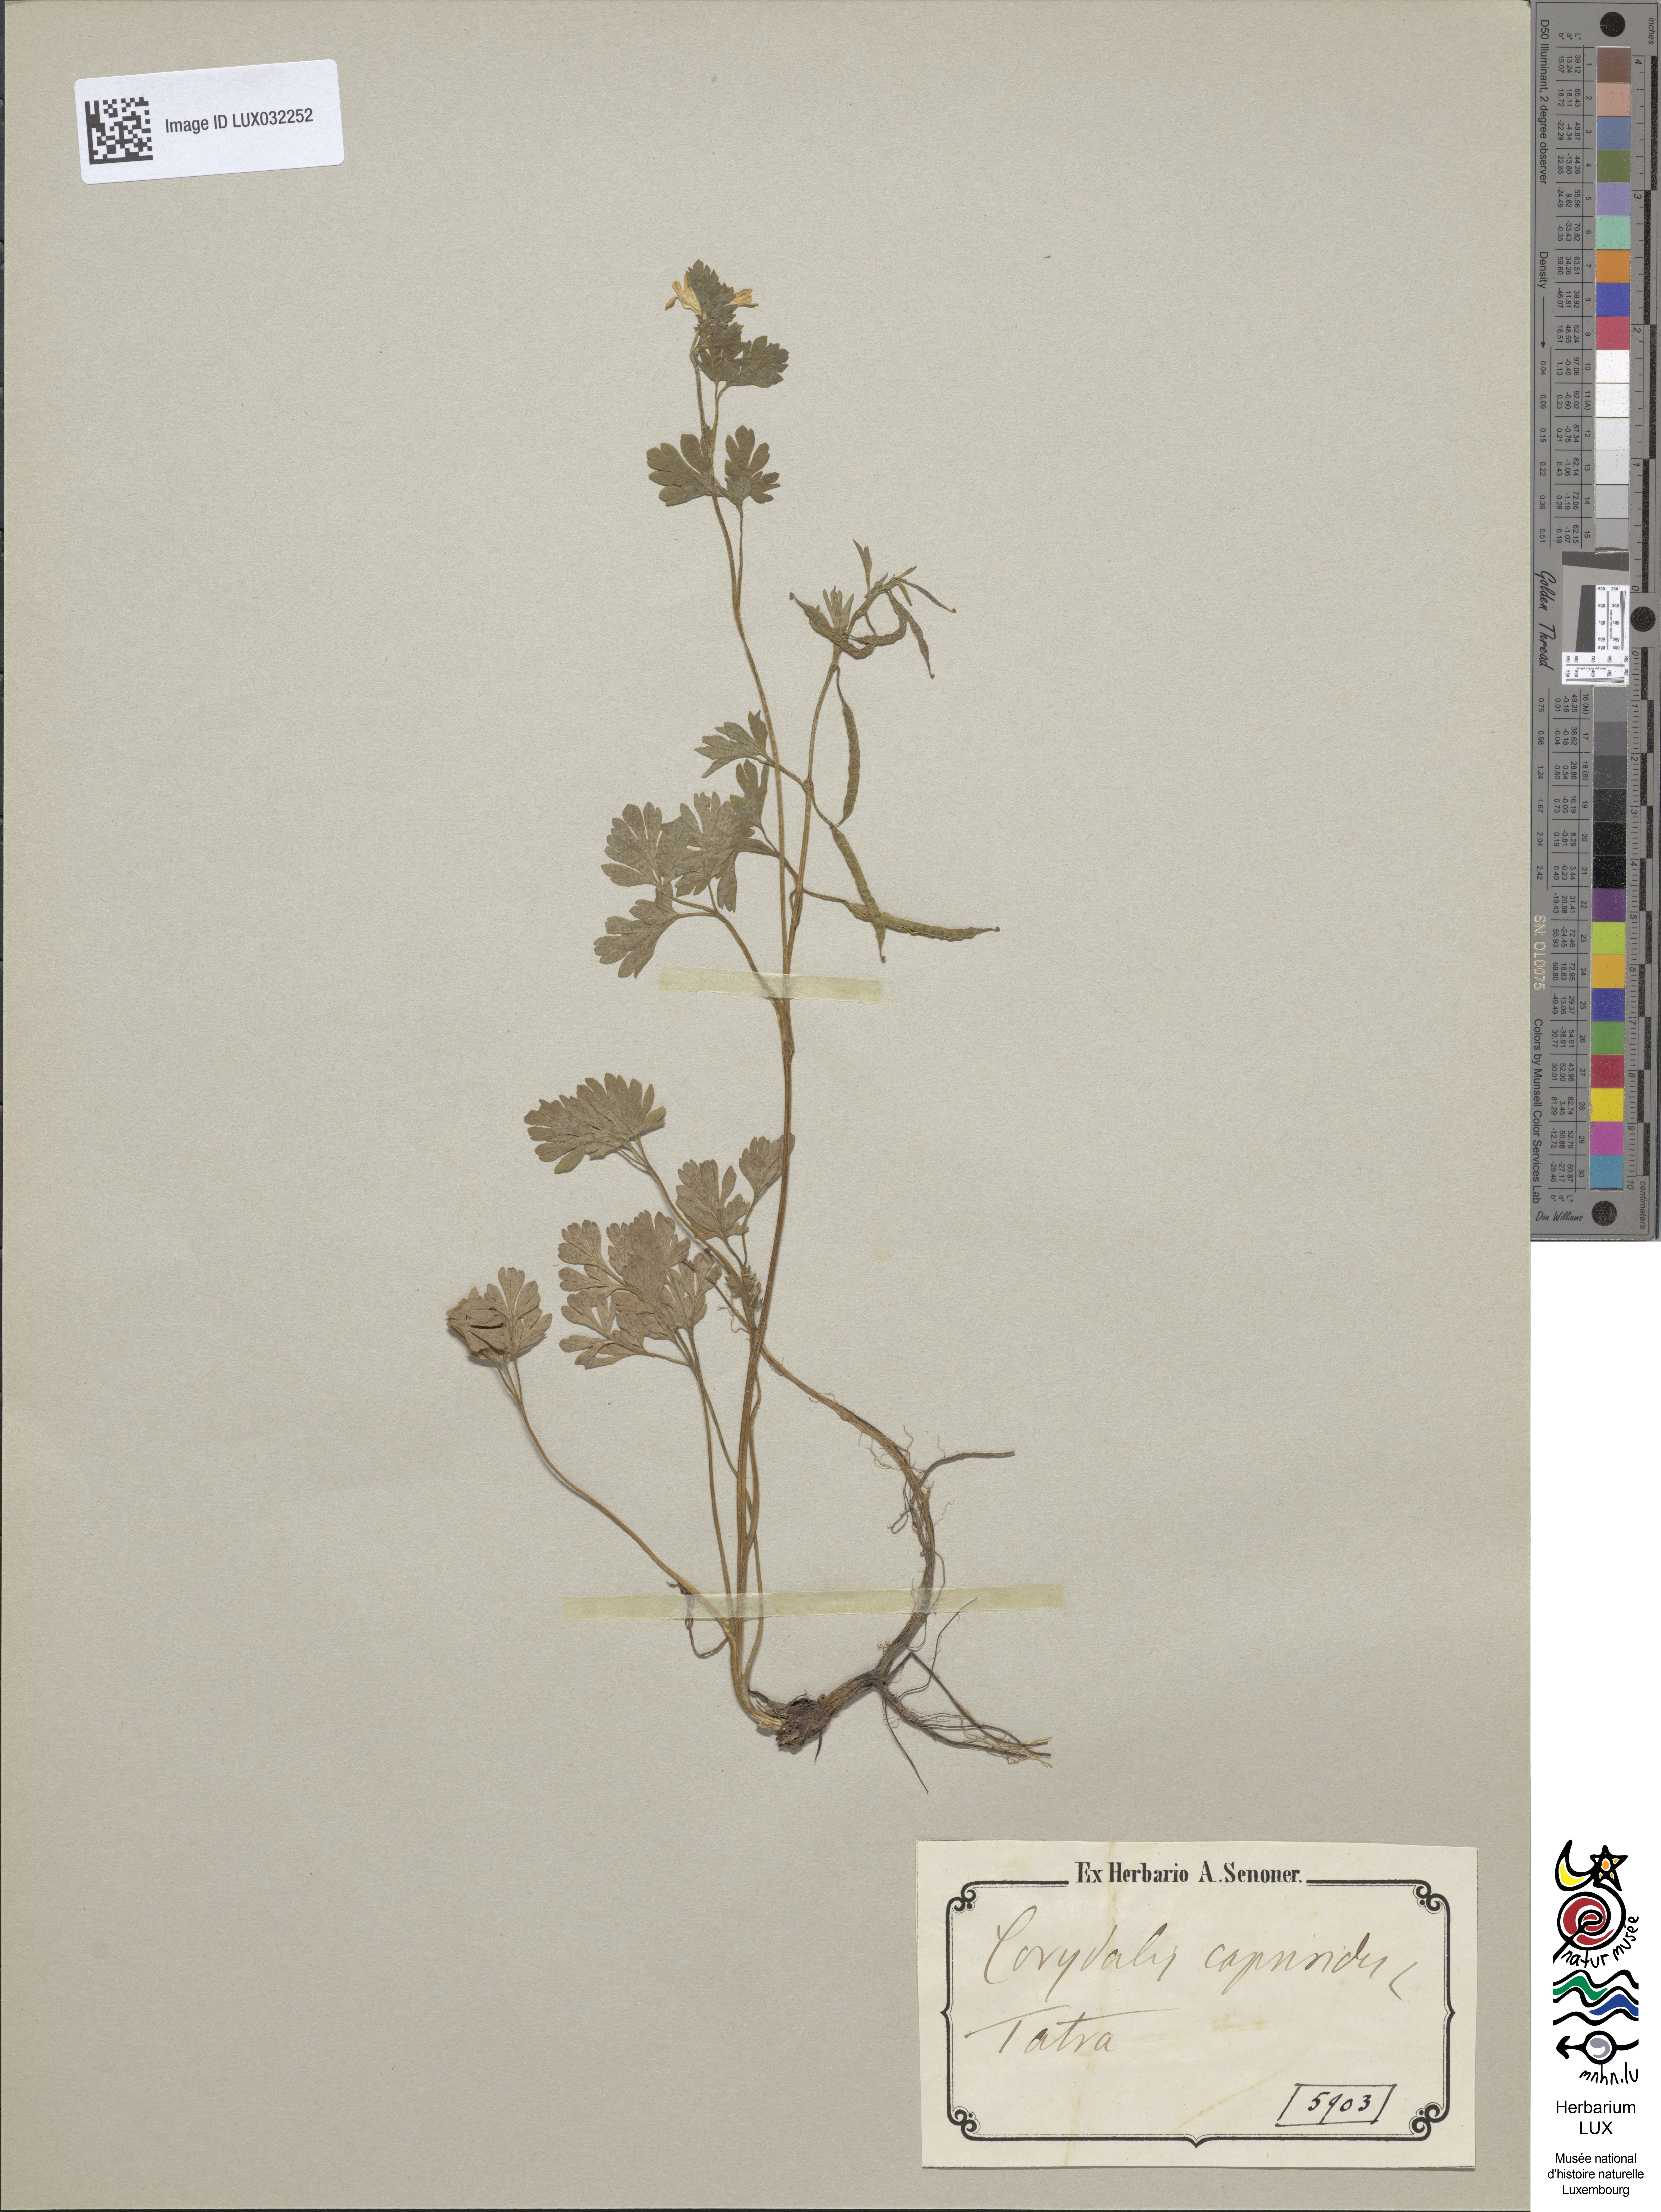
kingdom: Plantae
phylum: Tracheophyta
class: Magnoliopsida
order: Ranunculales
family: Papaveraceae
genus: Corydalis
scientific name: Corydalis capnoides
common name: Beaked corydalis
